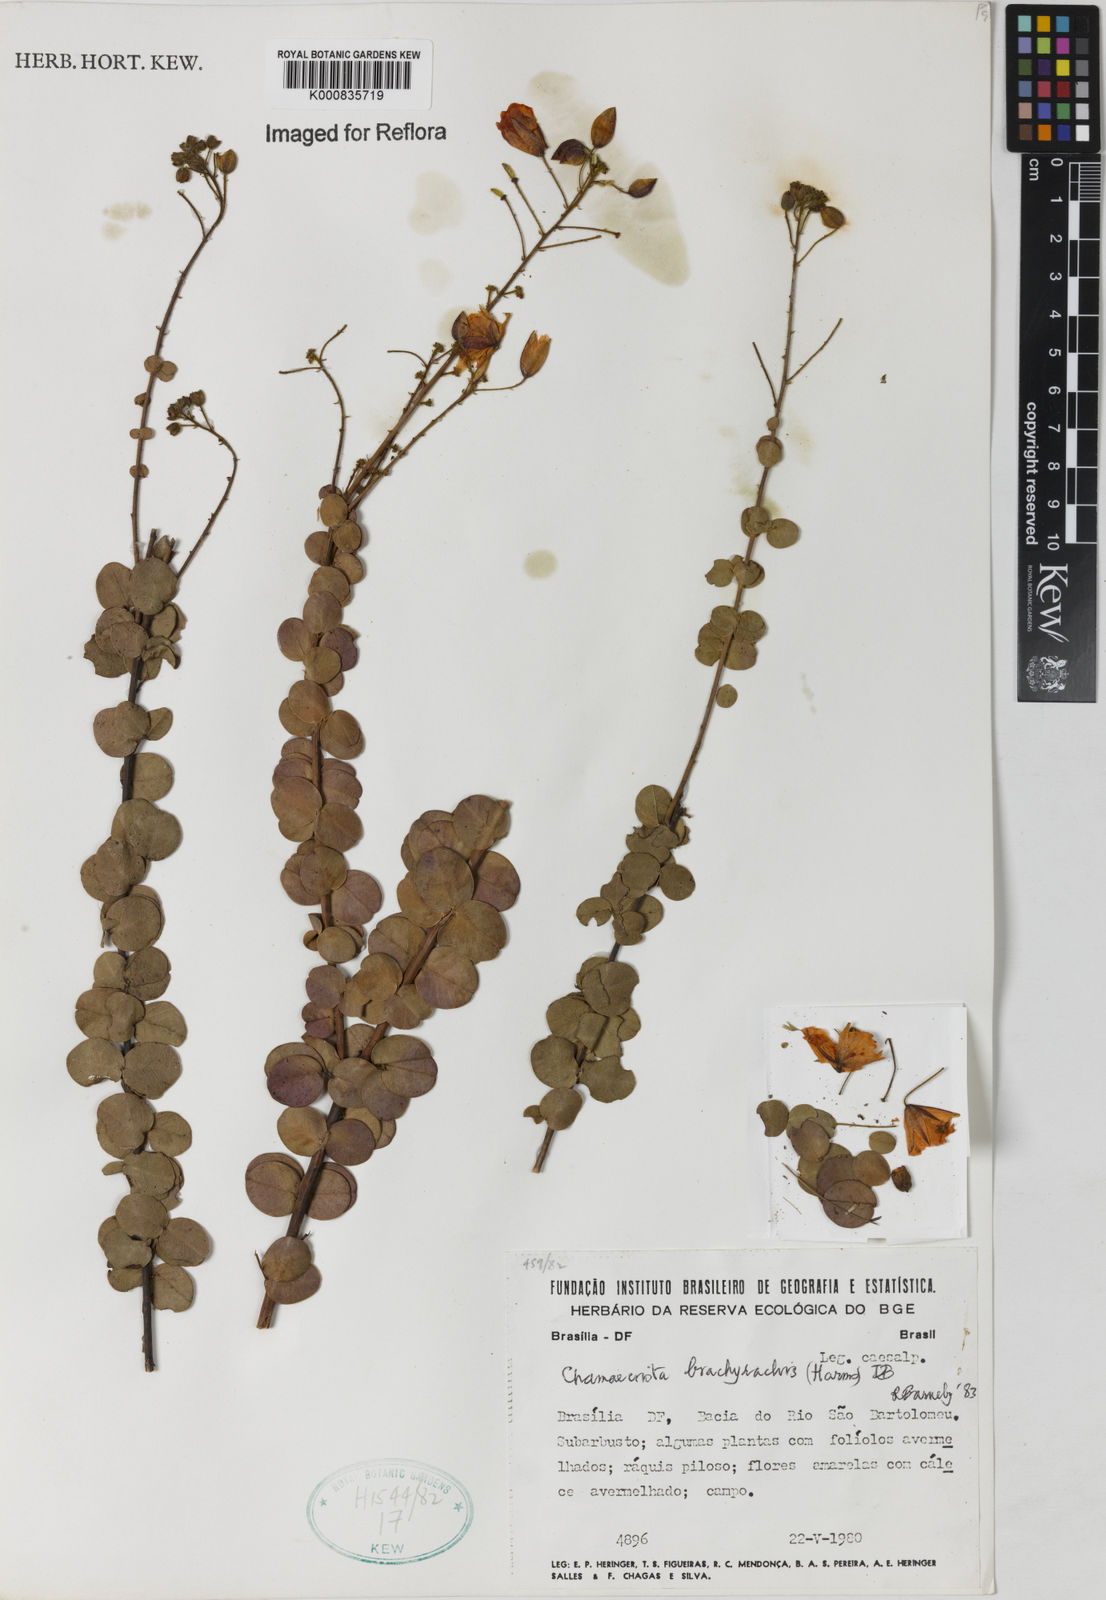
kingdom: Plantae
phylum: Tracheophyta
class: Magnoliopsida
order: Fabales
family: Fabaceae
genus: Chamaecrista
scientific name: Chamaecrista brachyrachis
